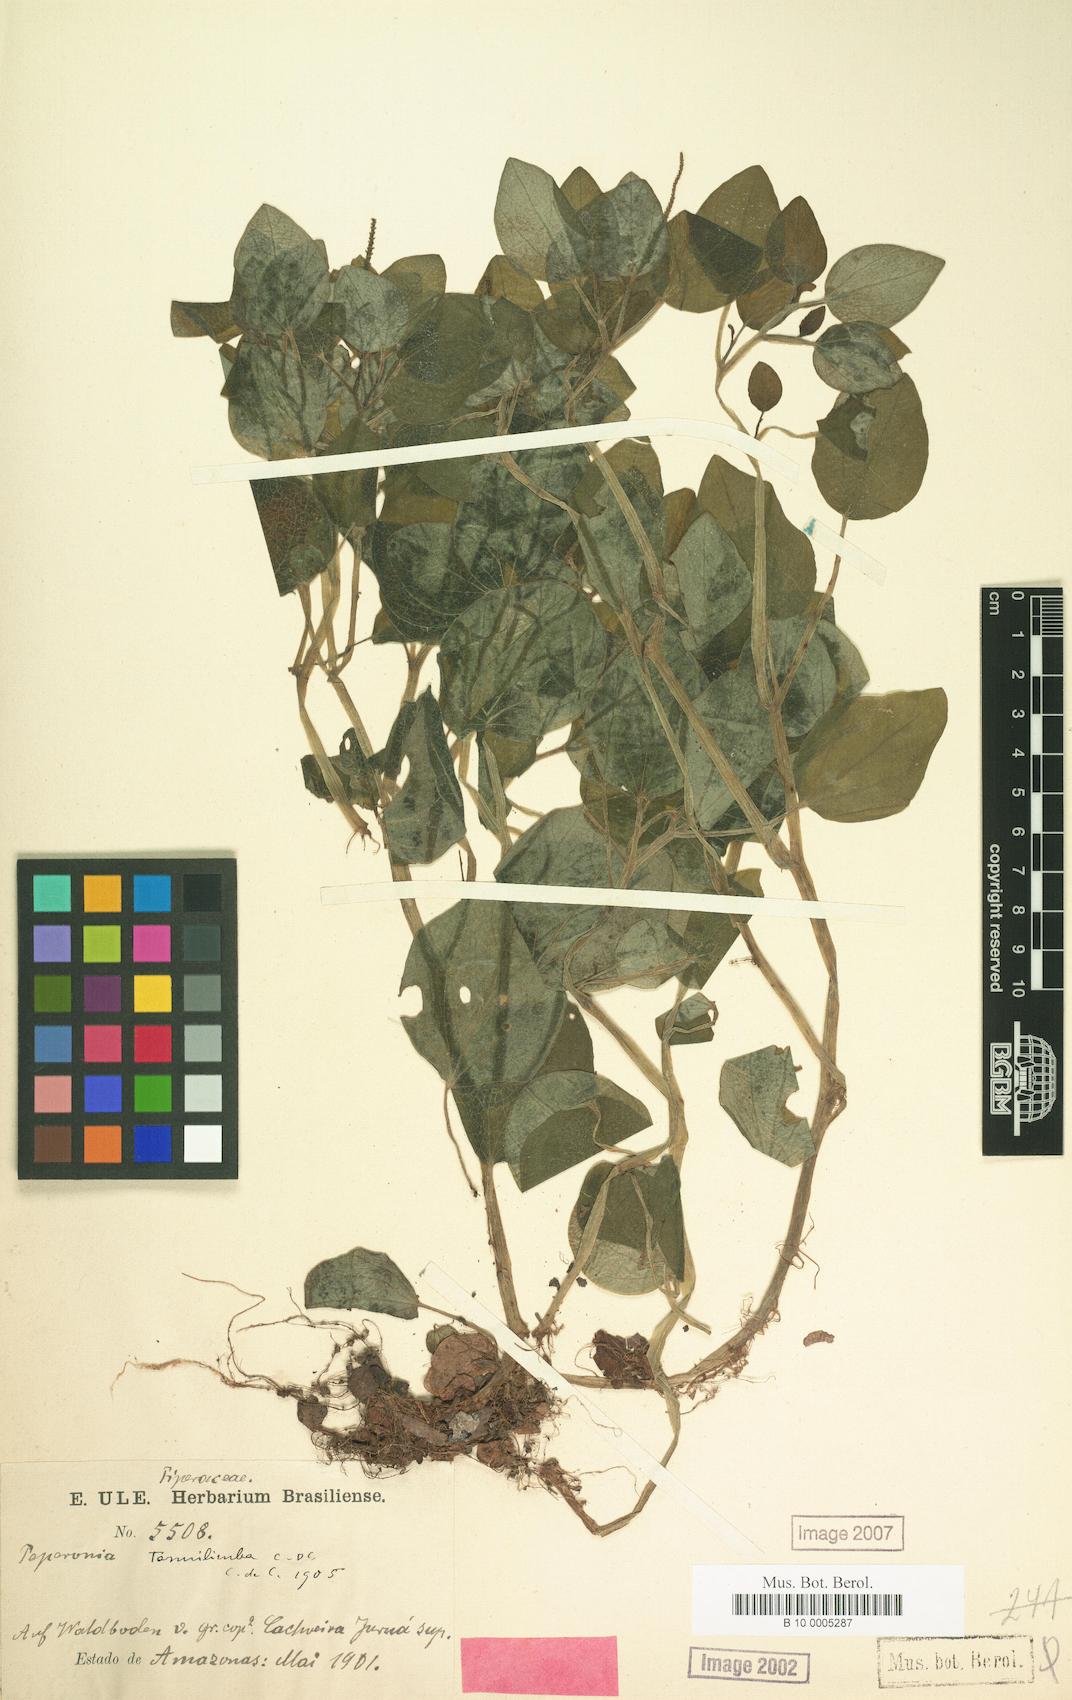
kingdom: Plantae
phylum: Tracheophyta
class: Magnoliopsida
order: Piperales
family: Piperaceae
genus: Peperomia
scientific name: Peperomia tenuilimba
